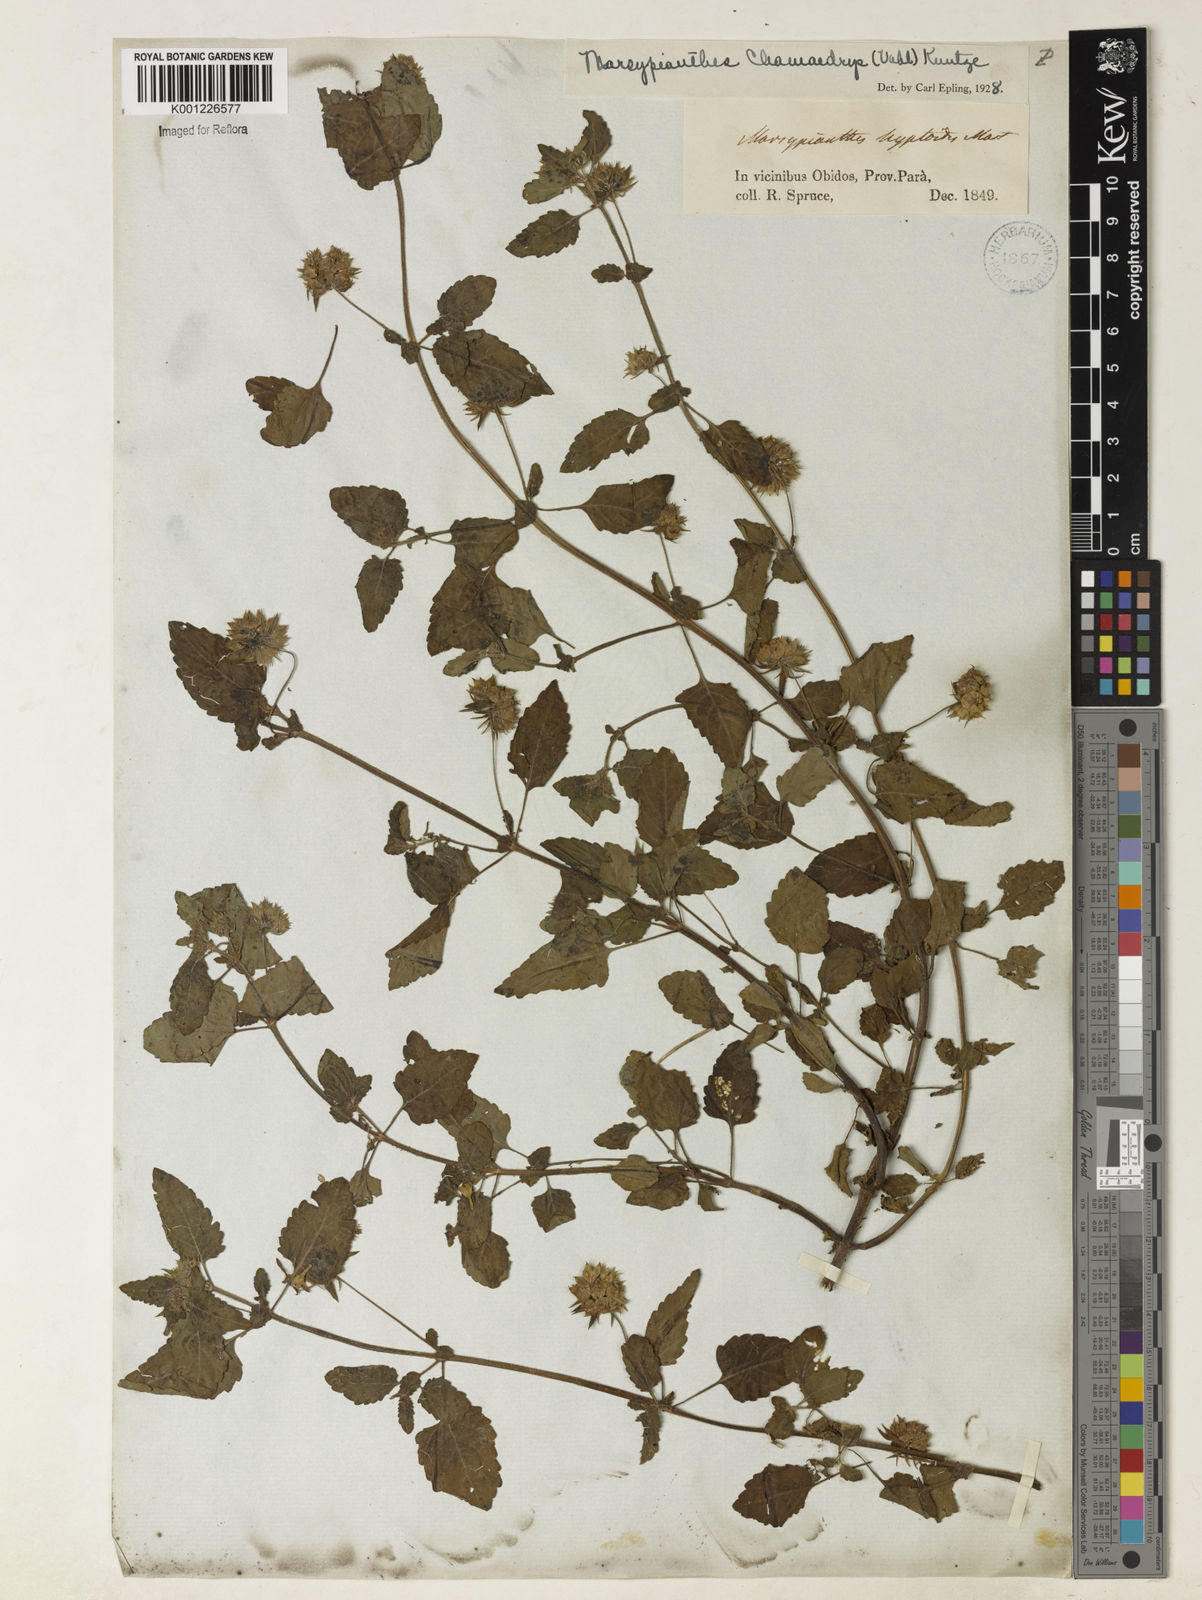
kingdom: Plantae
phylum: Tracheophyta
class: Magnoliopsida
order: Lamiales
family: Lamiaceae
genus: Marsypianthes
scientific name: Marsypianthes chamaedrys
